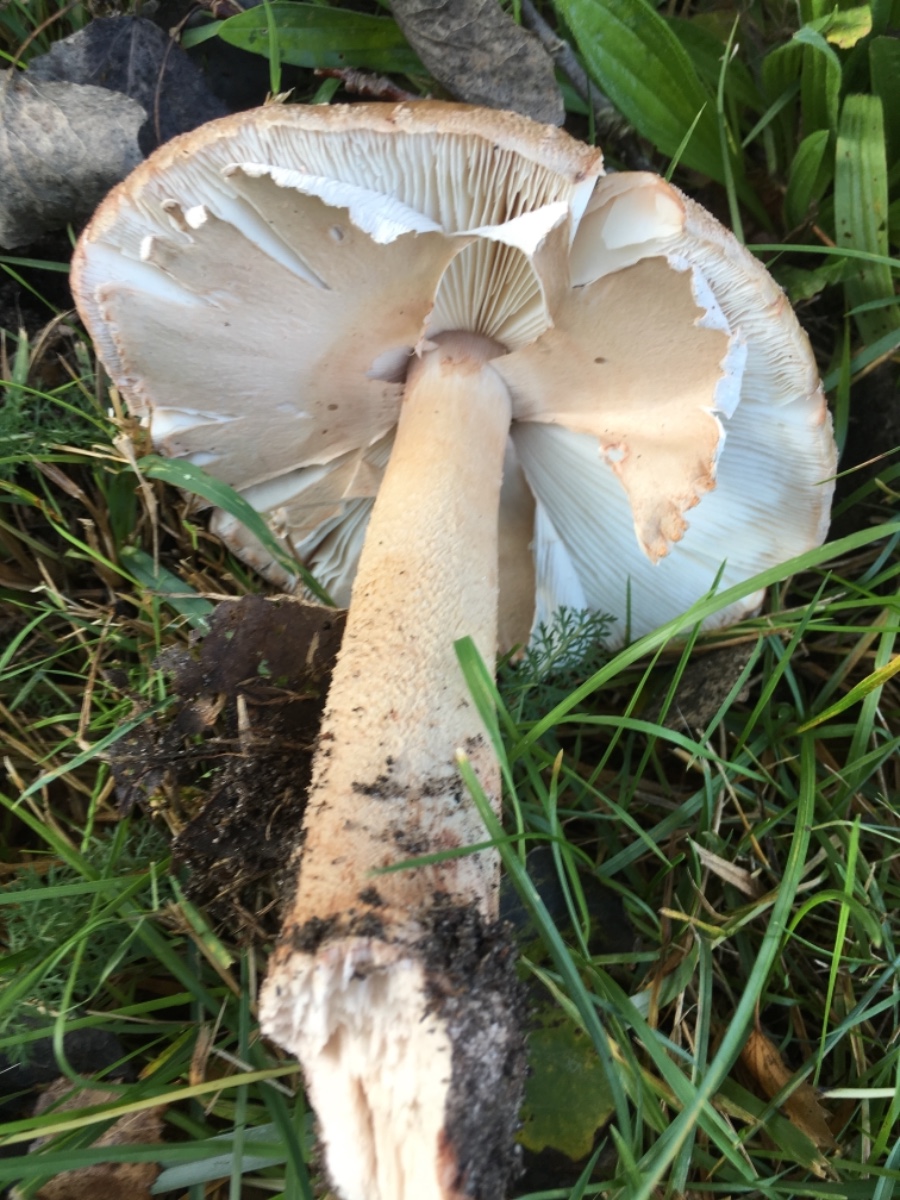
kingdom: Fungi
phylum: Basidiomycota
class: Agaricomycetes
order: Agaricales
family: Amanitaceae
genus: Amanita
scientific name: Amanita rubescens
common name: rødmende fluesvamp
